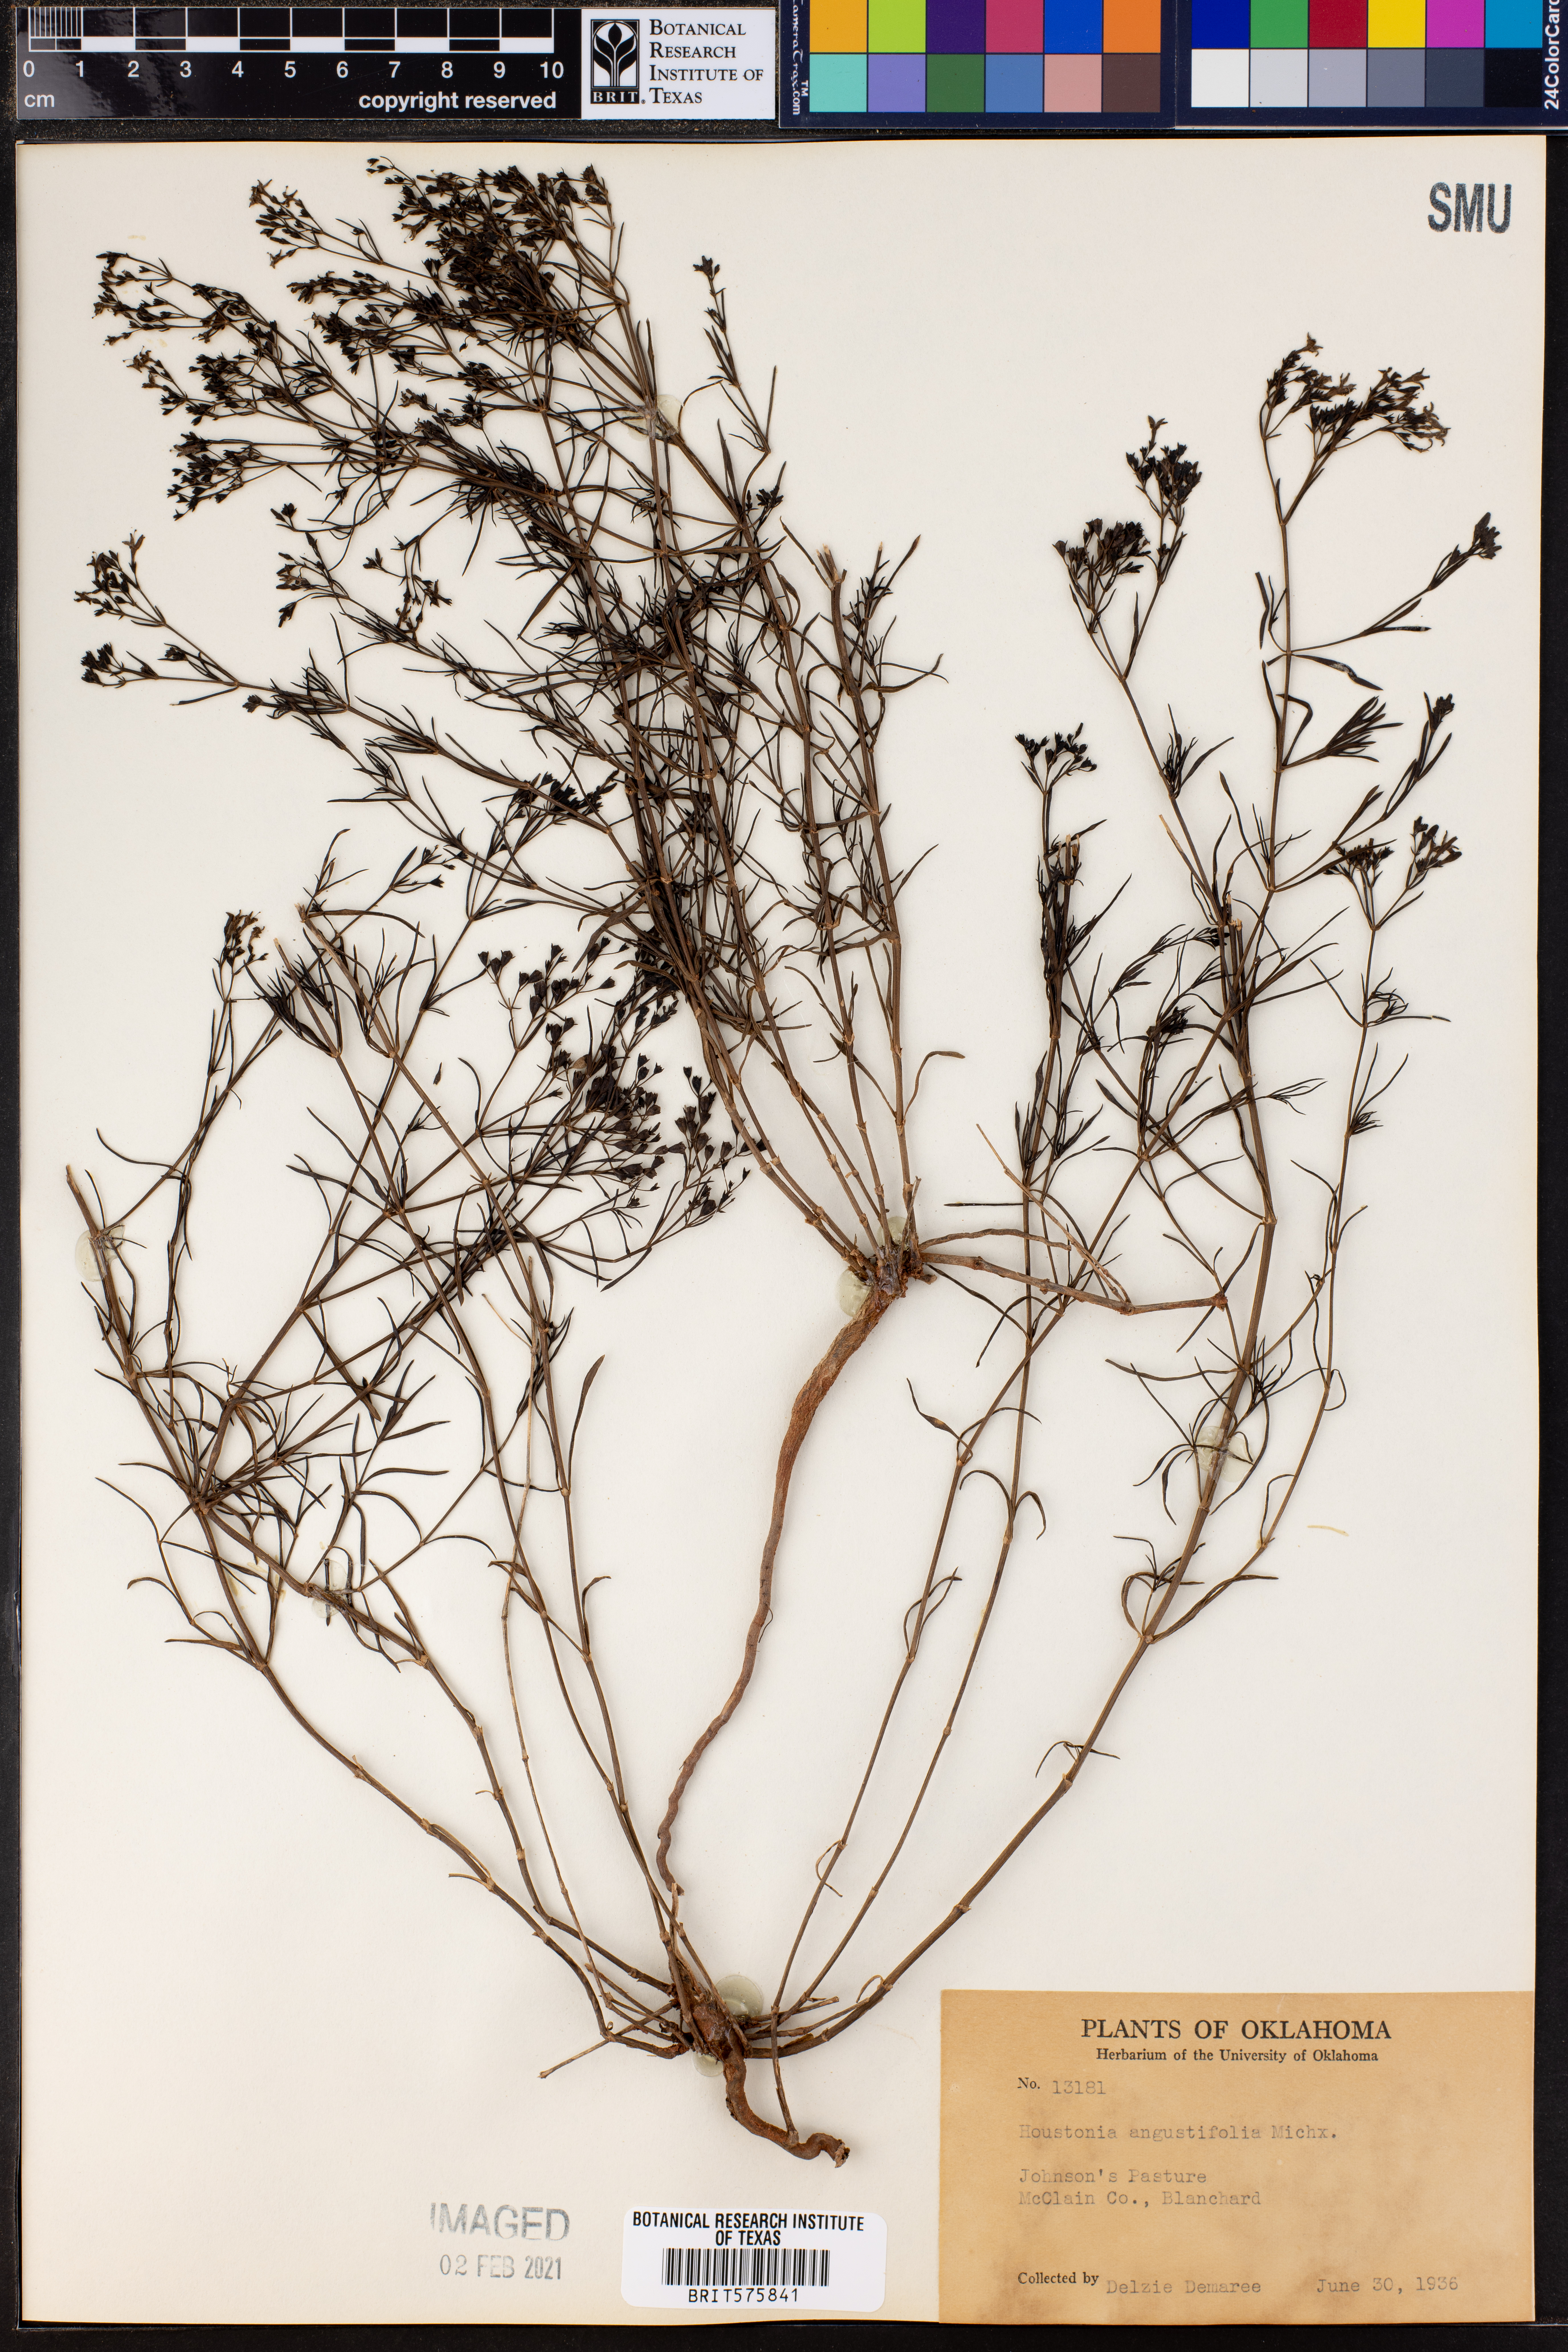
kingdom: Plantae
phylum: Tracheophyta
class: Magnoliopsida
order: Gentianales
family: Rubiaceae
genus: Stenaria
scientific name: Stenaria nigricans
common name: Diamondflowers
